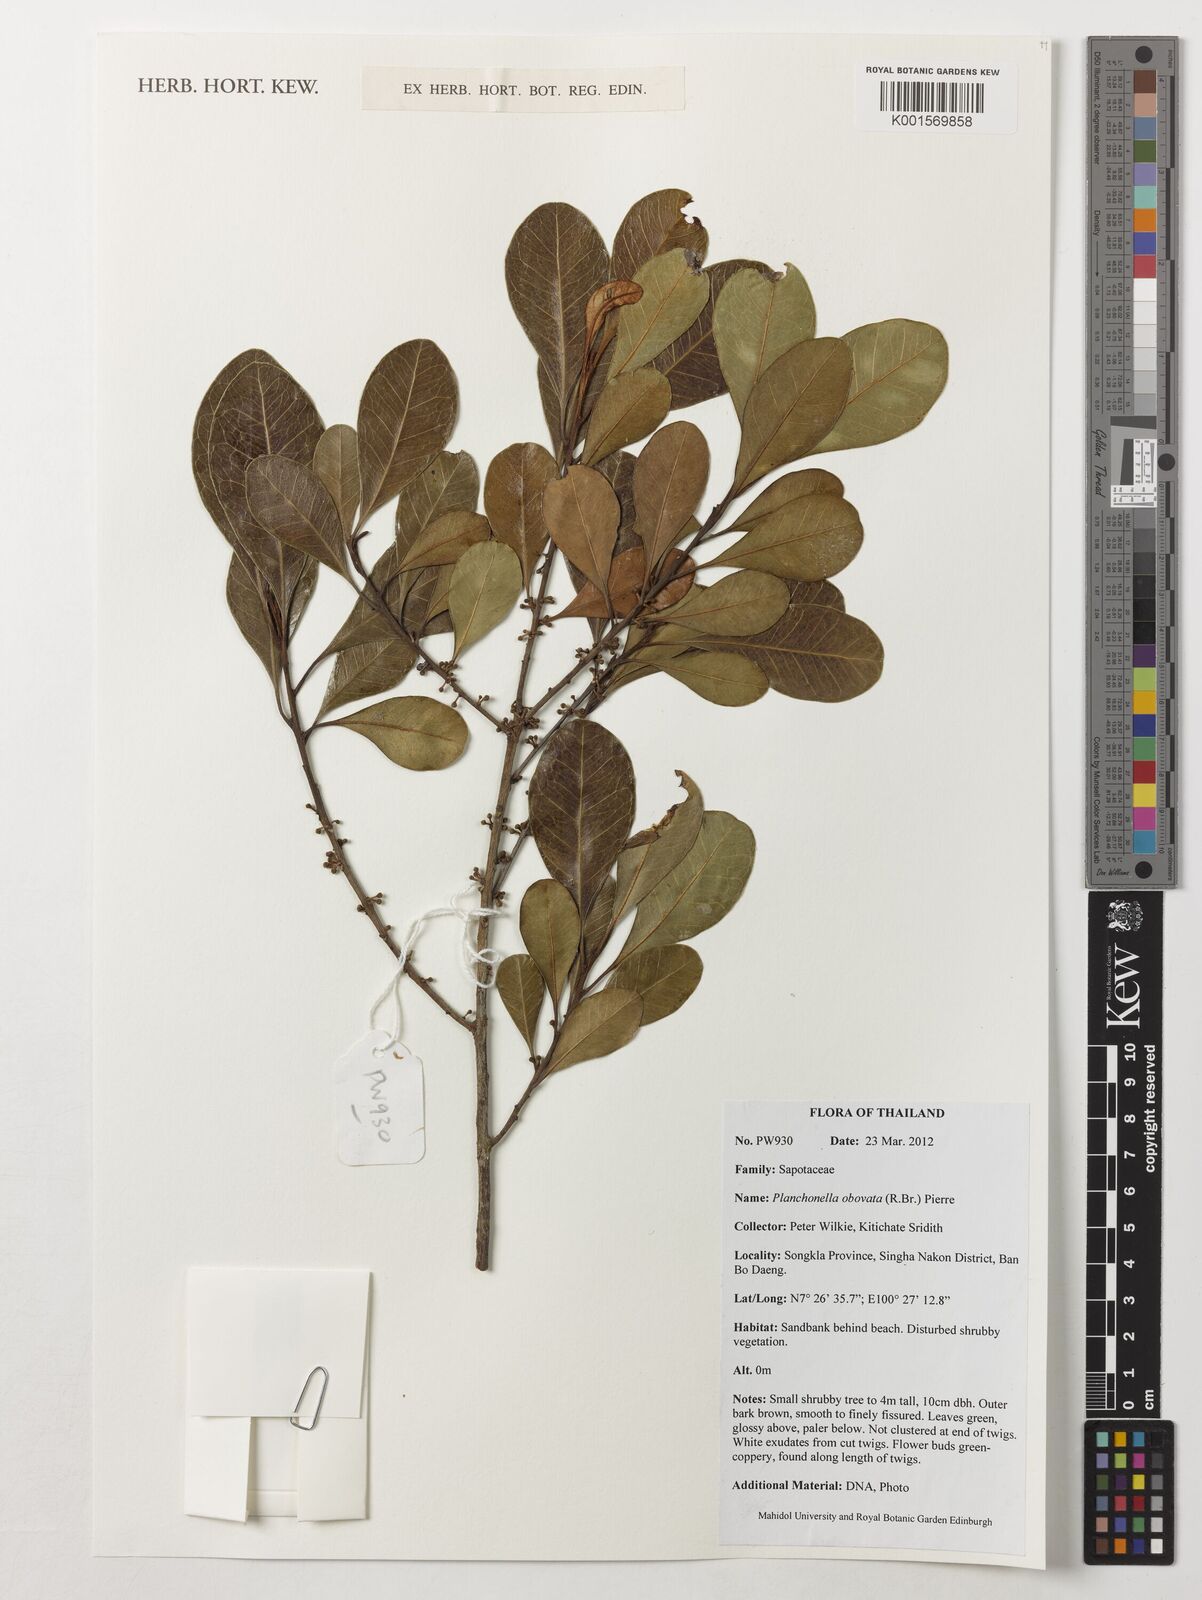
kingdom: Plantae
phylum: Tracheophyta
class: Magnoliopsida
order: Ericales
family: Sapotaceae
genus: Planchonella
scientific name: Planchonella obovata
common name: Black-ash
